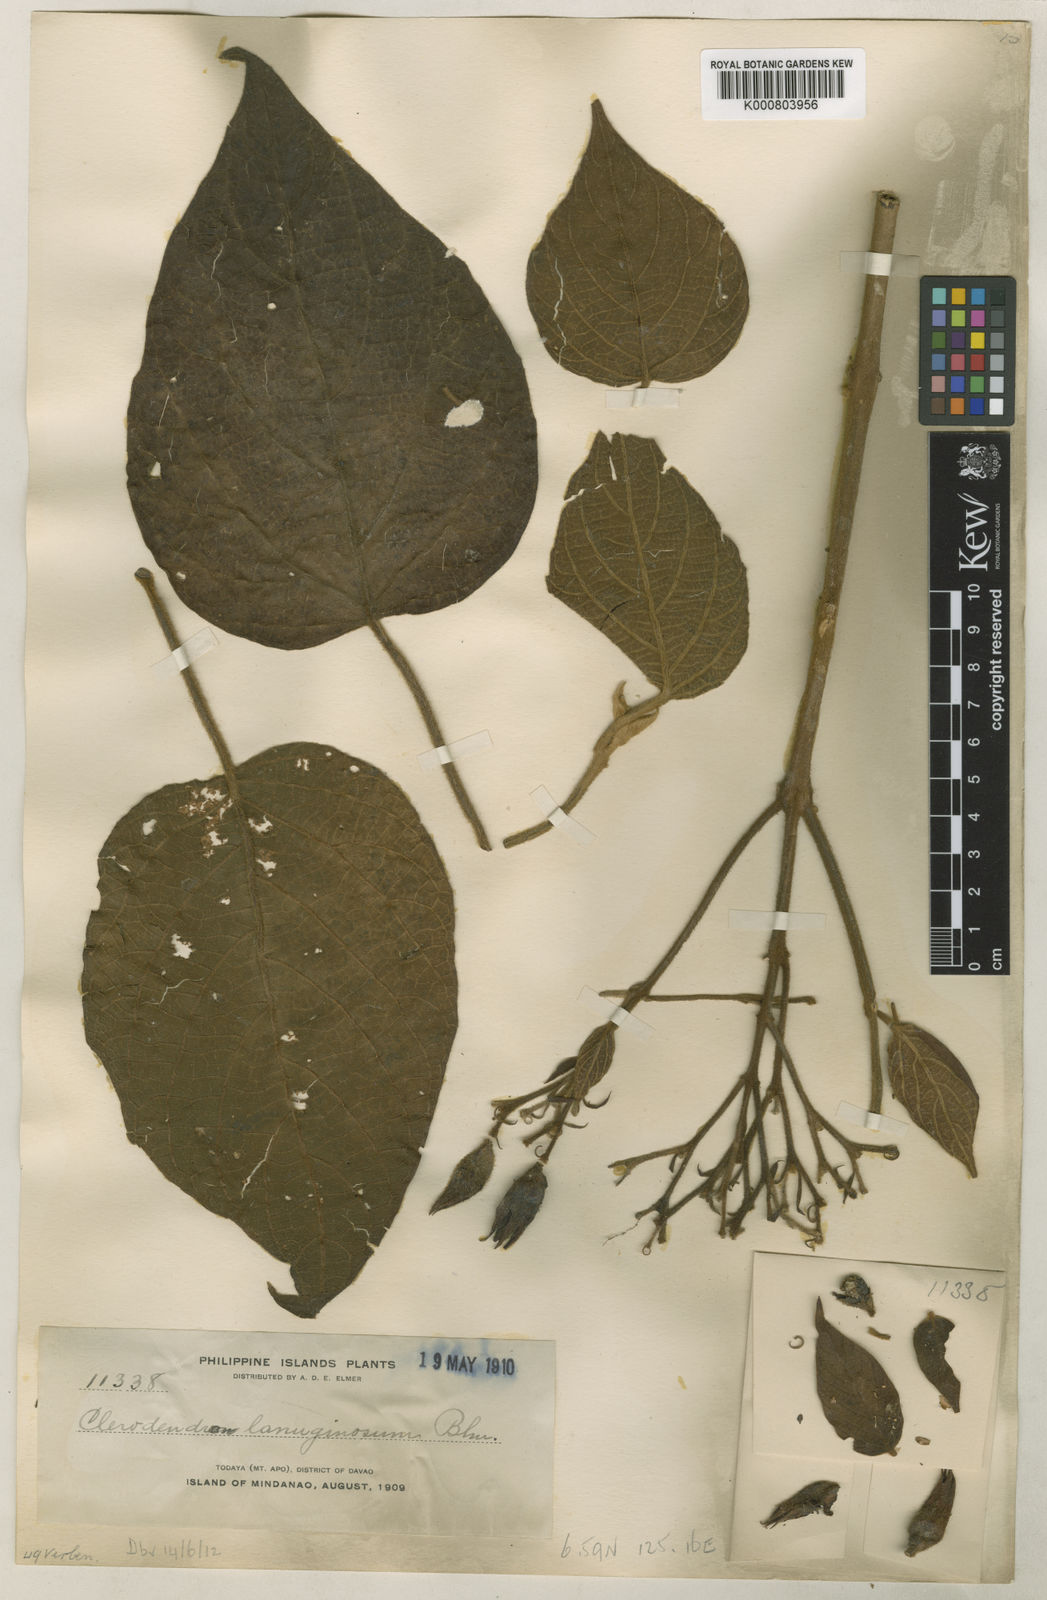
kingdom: Plantae
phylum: Tracheophyta
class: Magnoliopsida
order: Lamiales
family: Lamiaceae
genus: Clerodendrum
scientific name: Clerodendrum lanuginosum
